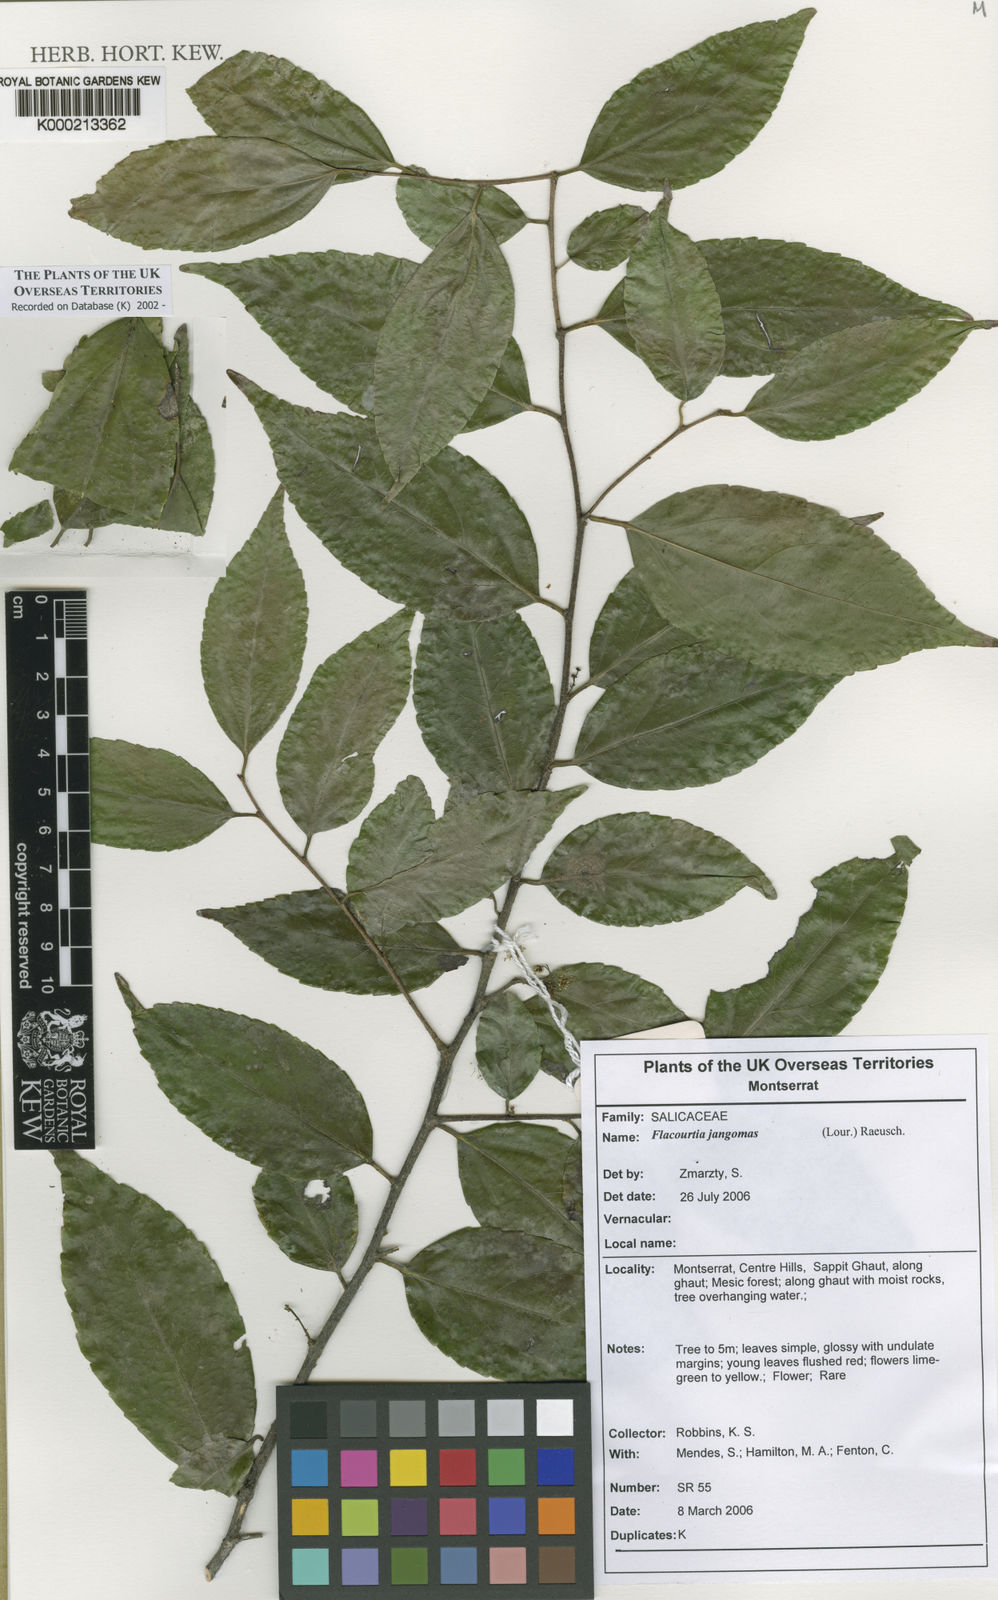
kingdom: Plantae
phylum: Tracheophyta
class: Magnoliopsida
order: Malpighiales
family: Salicaceae
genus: Flacourtia
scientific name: Flacourtia jangomas
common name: Indian-plum
